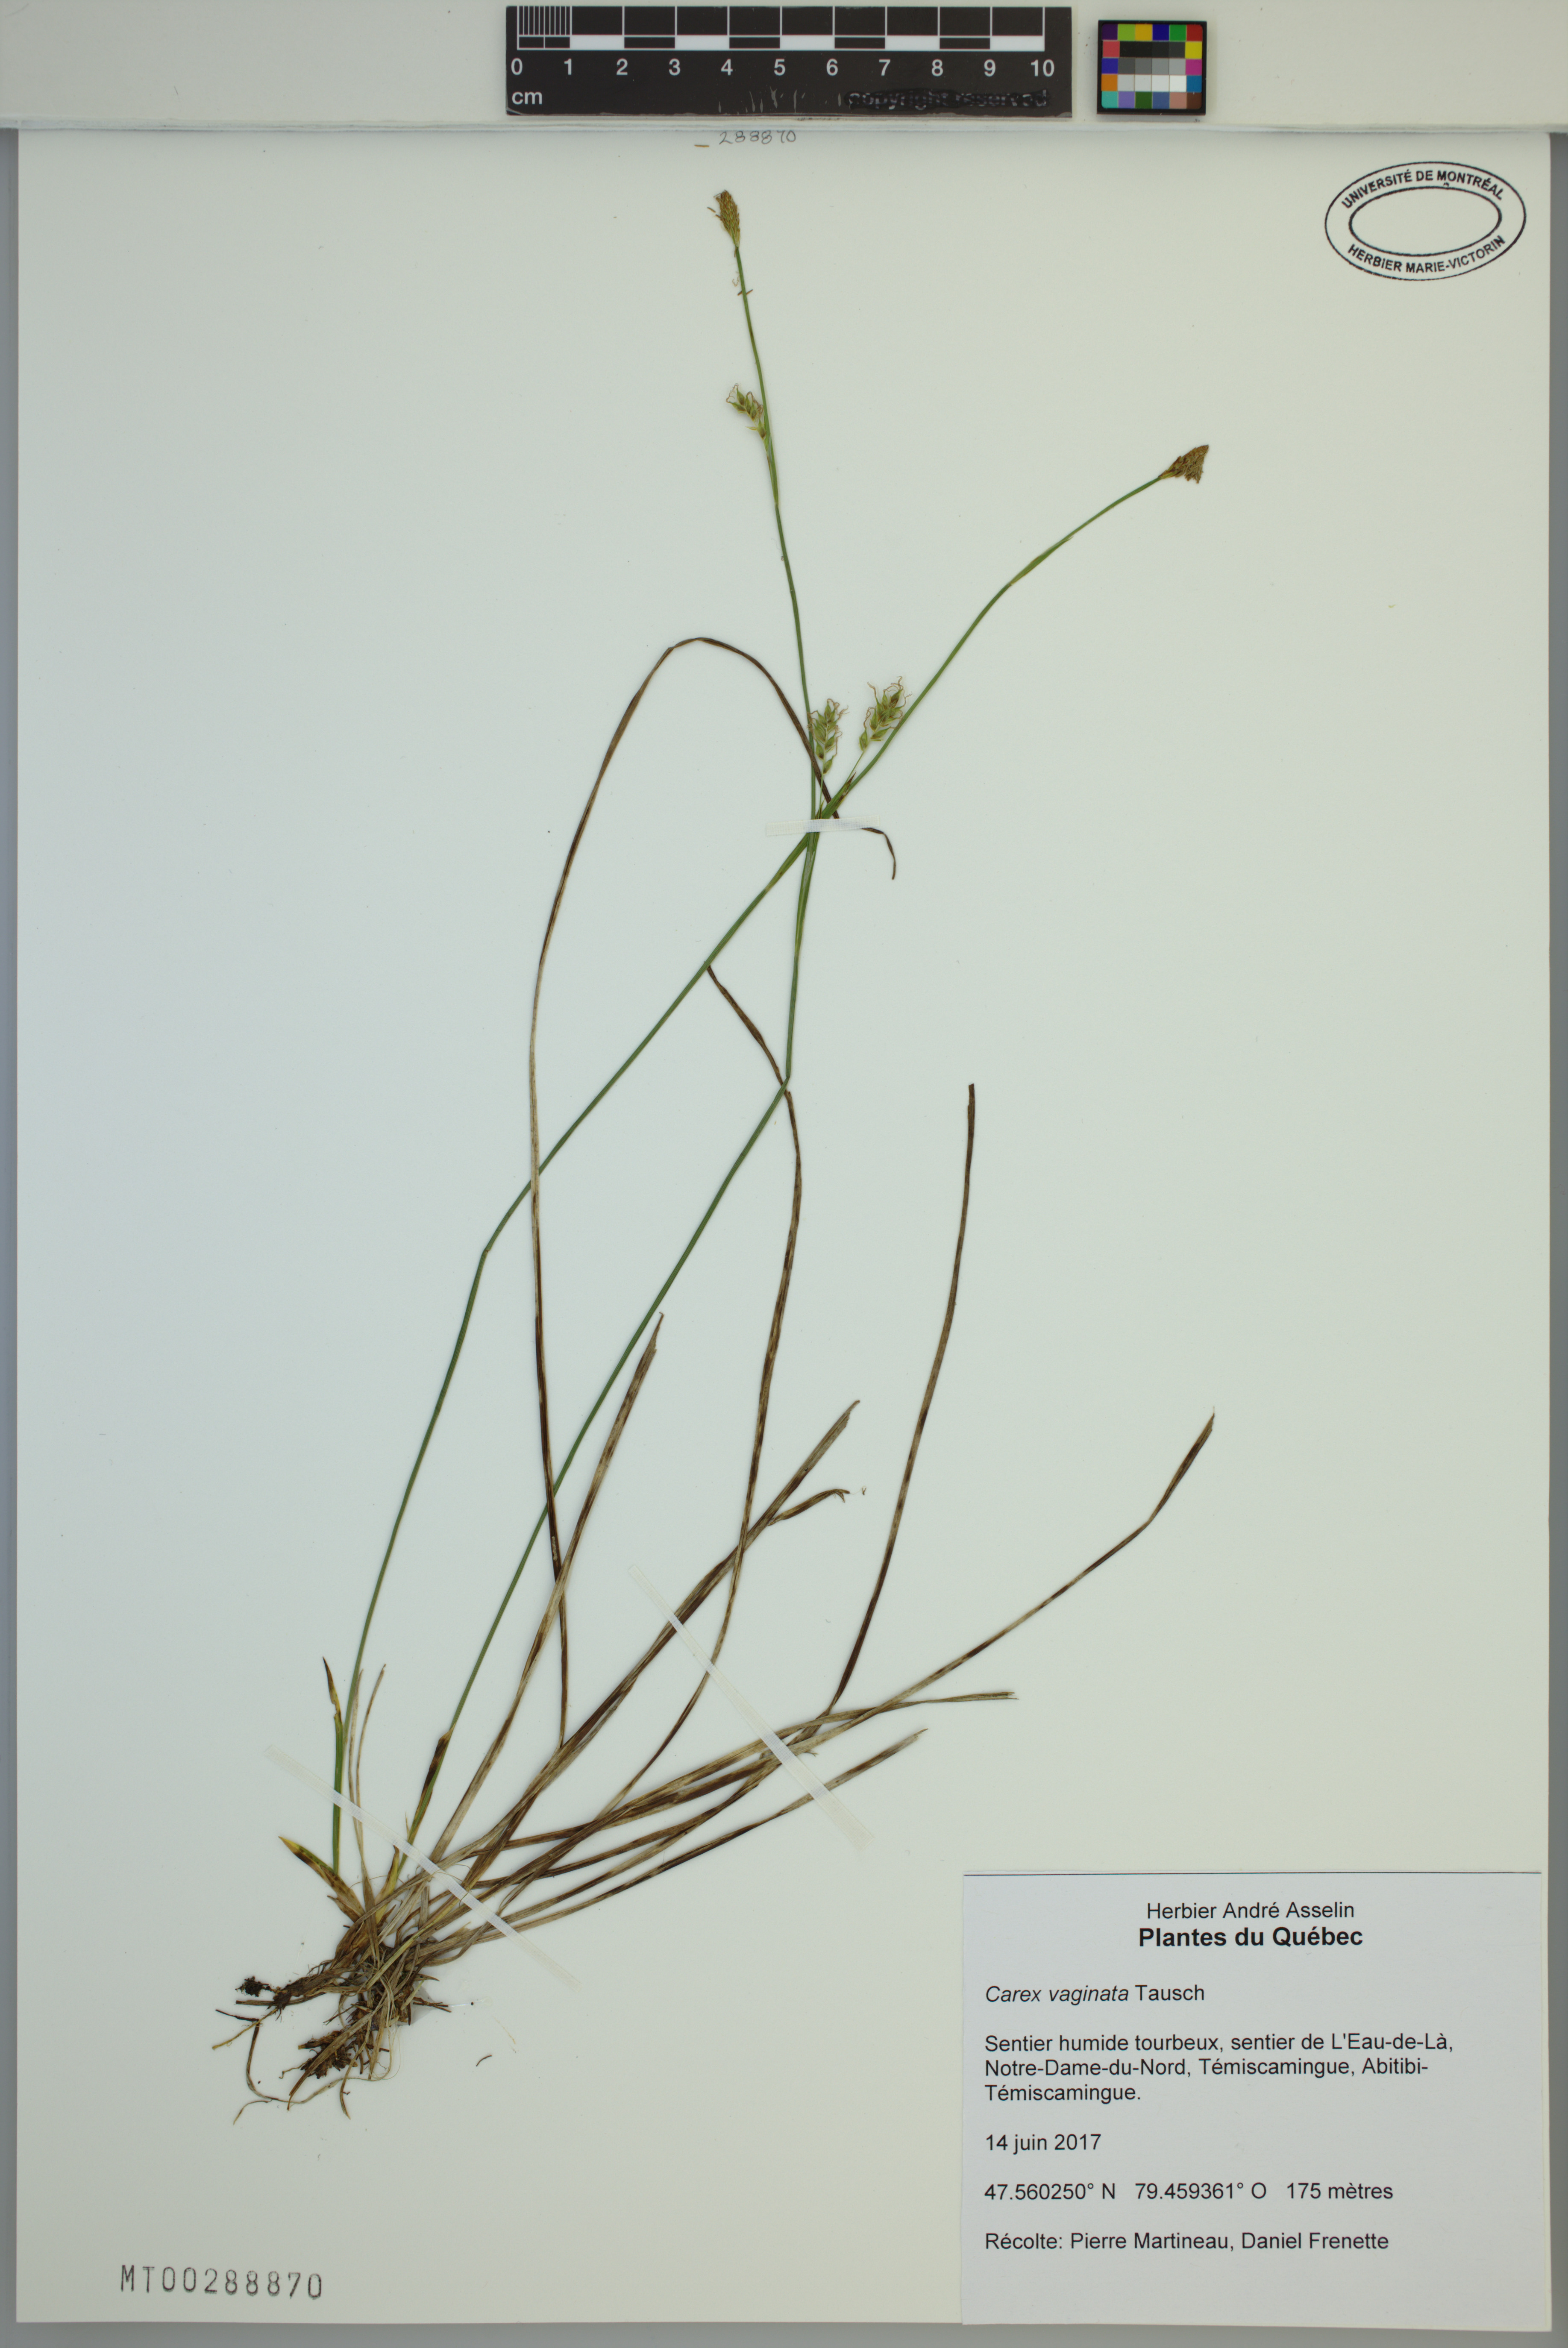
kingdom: Plantae
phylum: Tracheophyta
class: Liliopsida
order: Poales
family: Cyperaceae
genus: Carex
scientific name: Carex vaginata
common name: Sheathed sedge
